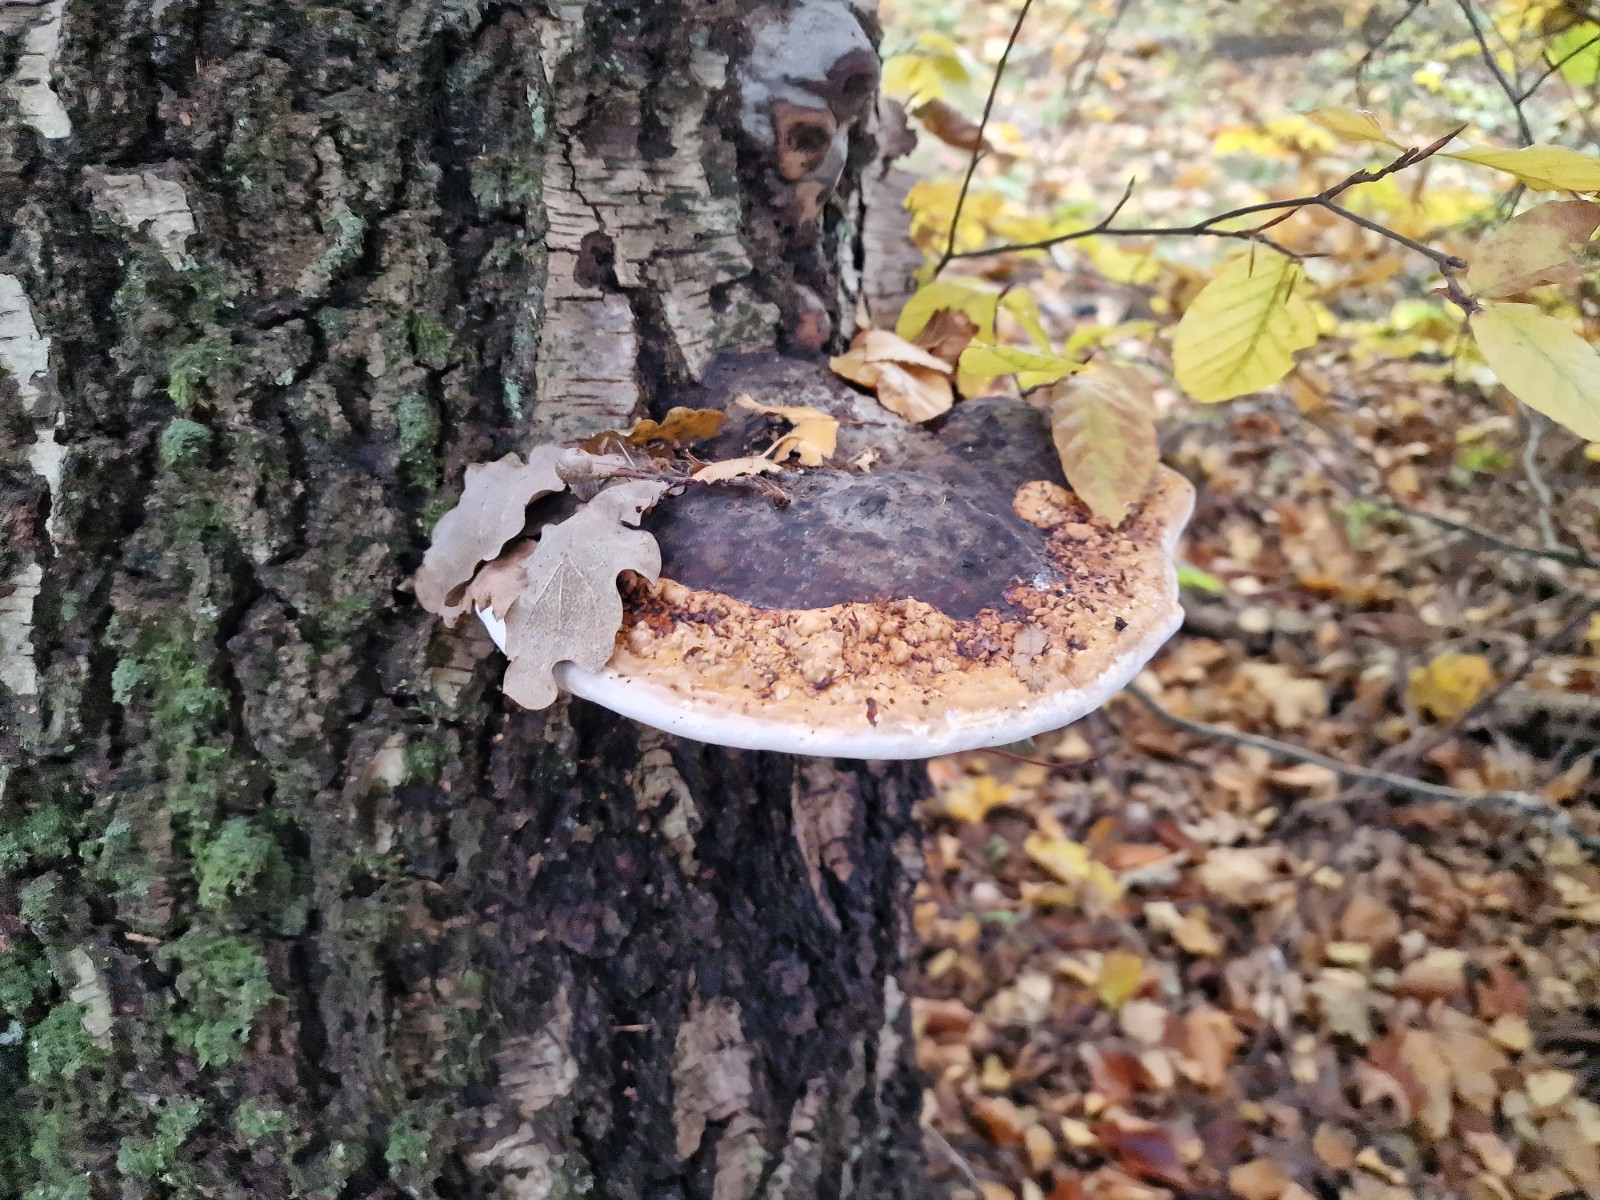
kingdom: Fungi
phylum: Basidiomycota
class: Agaricomycetes
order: Polyporales
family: Fomitopsidaceae
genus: Fomitopsis
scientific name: Fomitopsis pinicola
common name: randbæltet hovporesvamp
